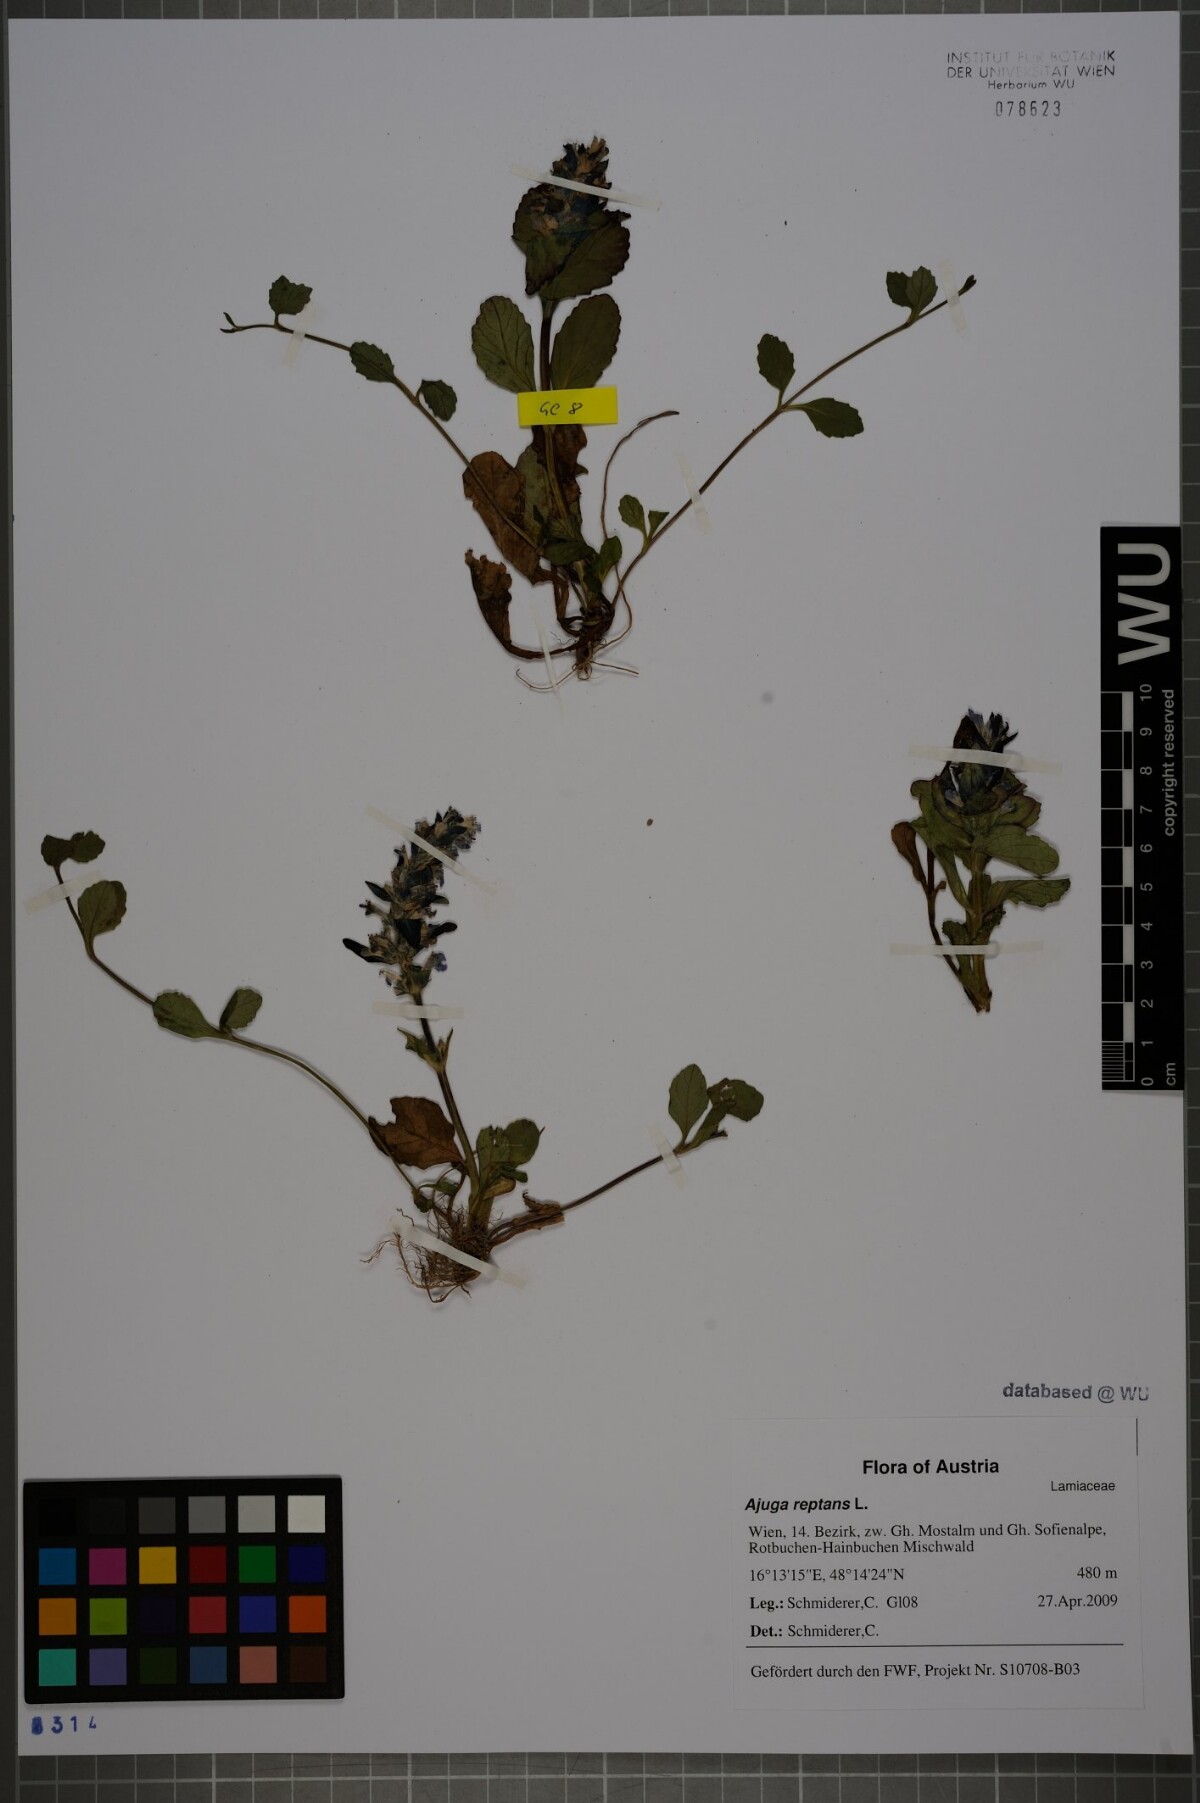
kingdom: Plantae
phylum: Tracheophyta
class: Magnoliopsida
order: Lamiales
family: Lamiaceae
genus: Ajuga
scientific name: Ajuga reptans
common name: Bugle
